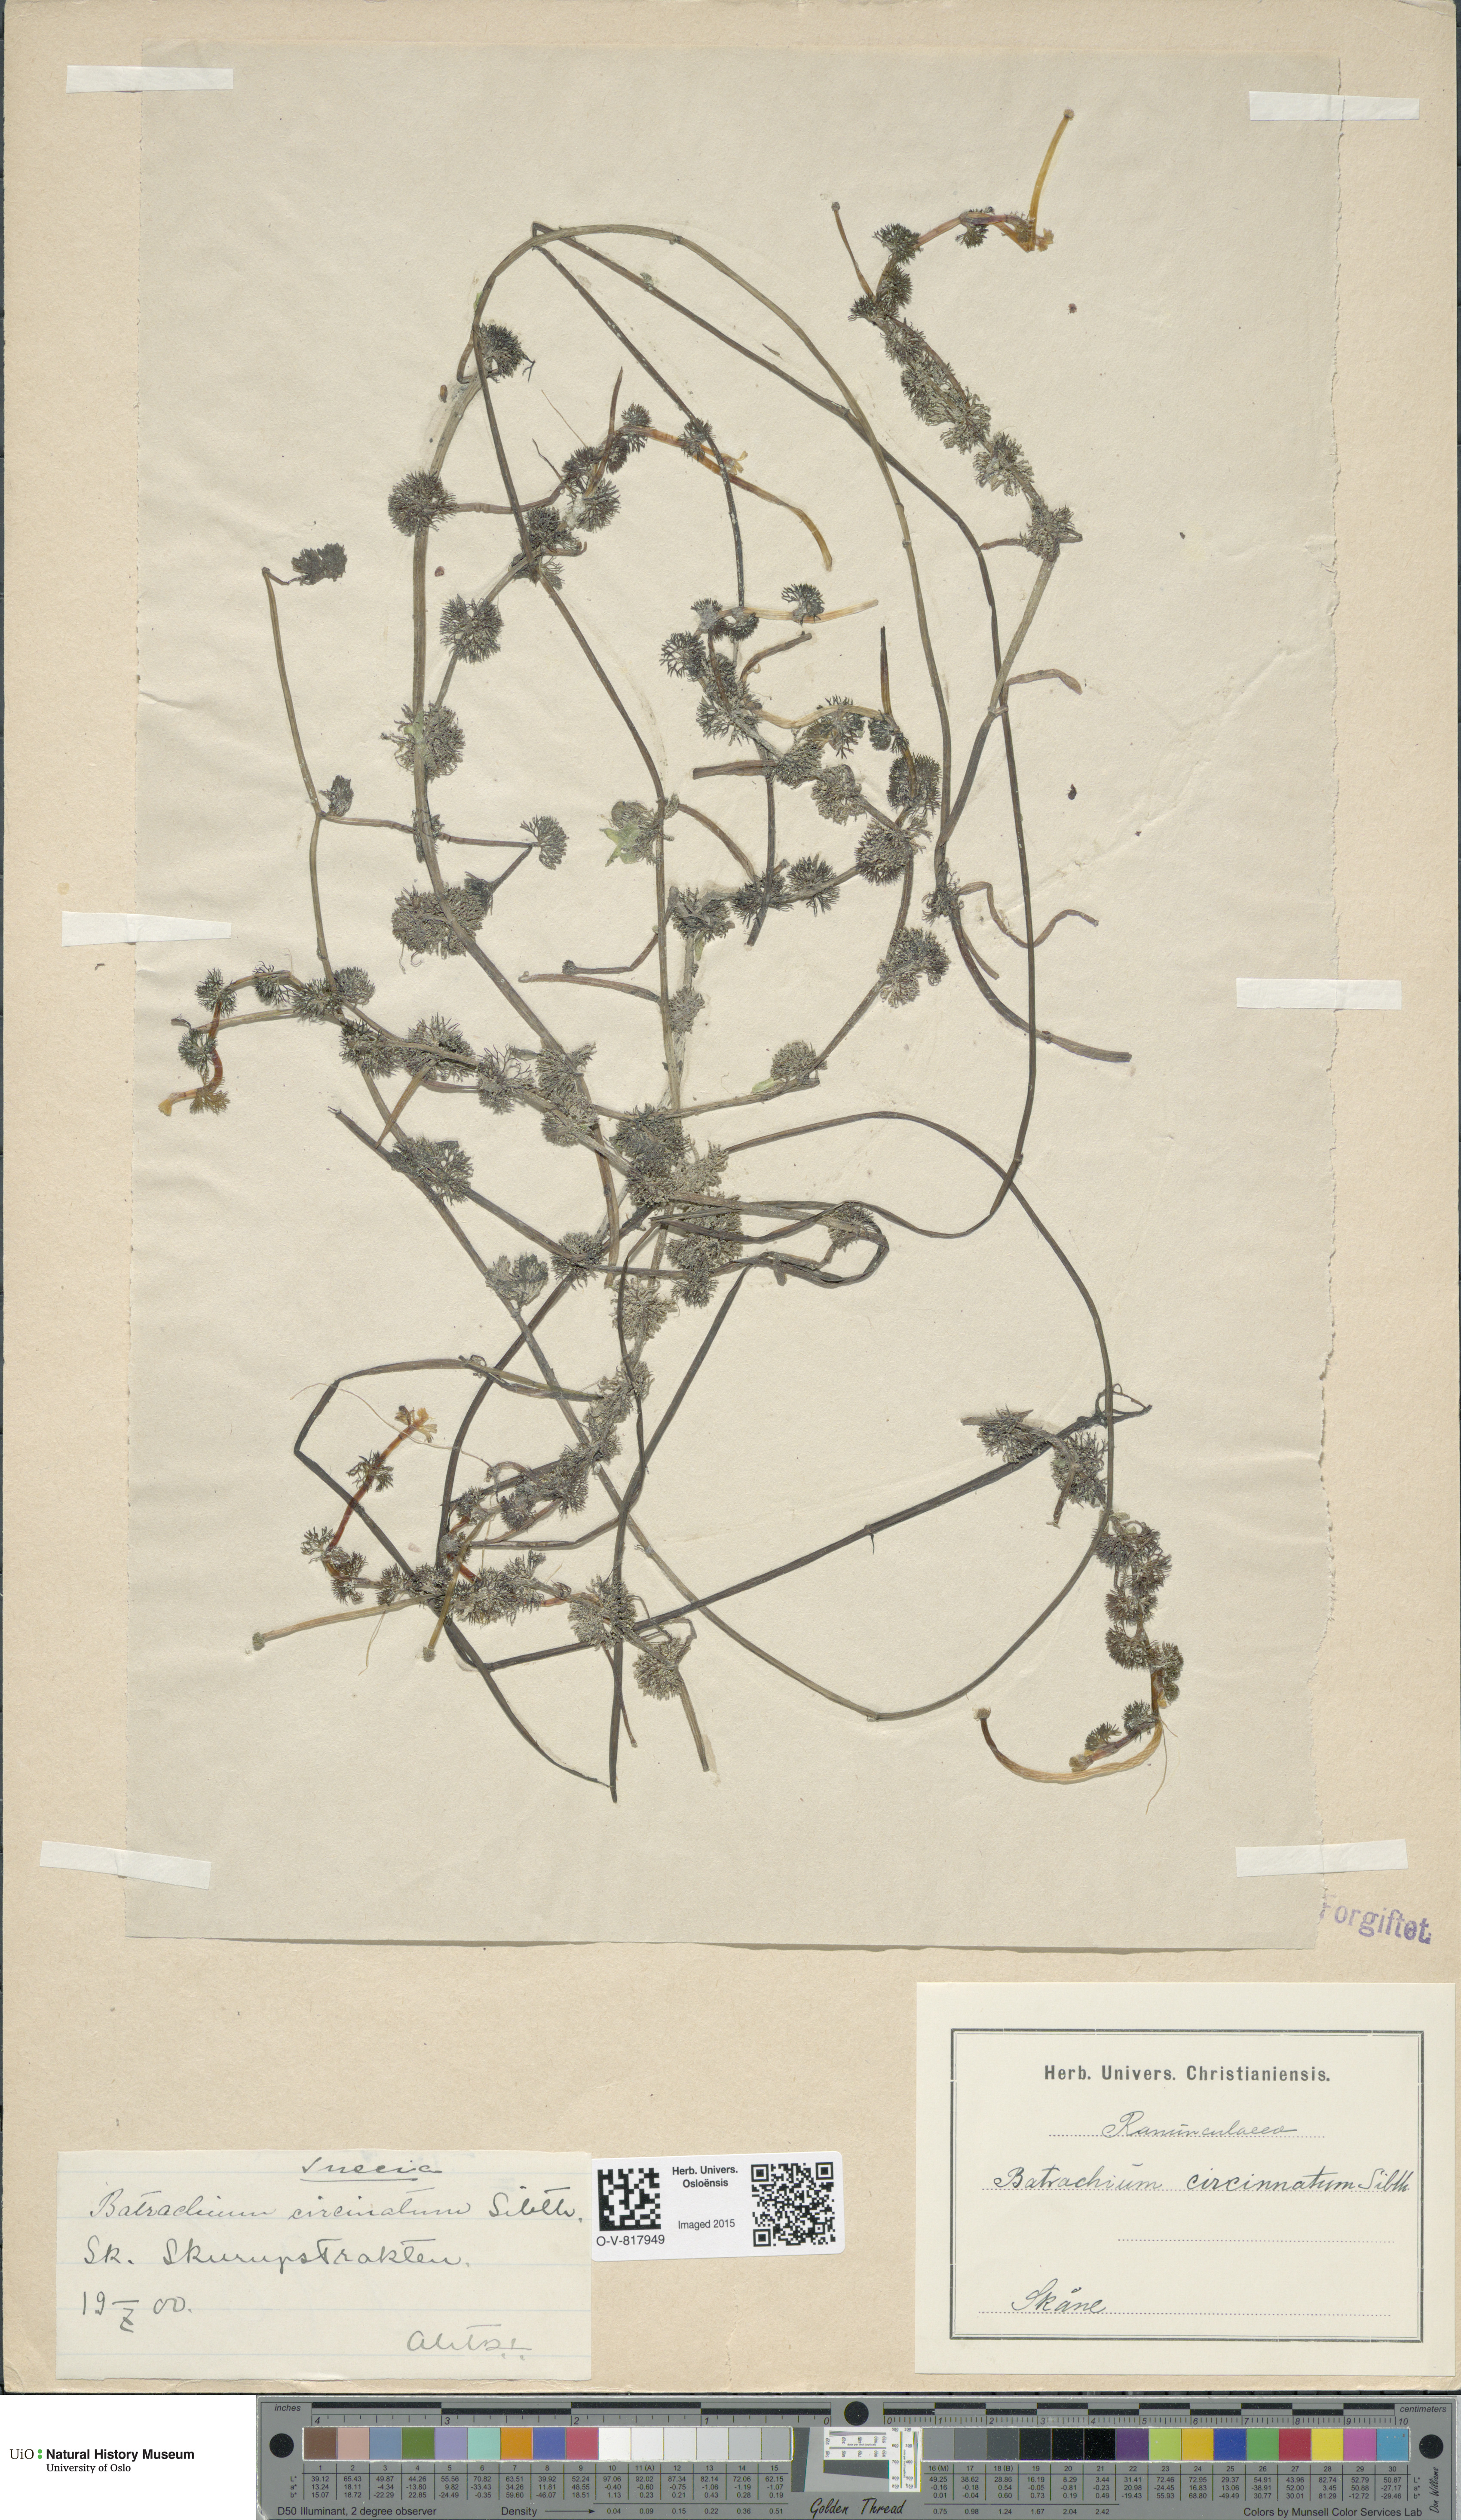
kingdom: Plantae
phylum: Tracheophyta
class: Magnoliopsida
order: Ranunculales
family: Ranunculaceae
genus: Ranunculus
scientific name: Ranunculus circinatus
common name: Fan-leaved water-crowfoot
